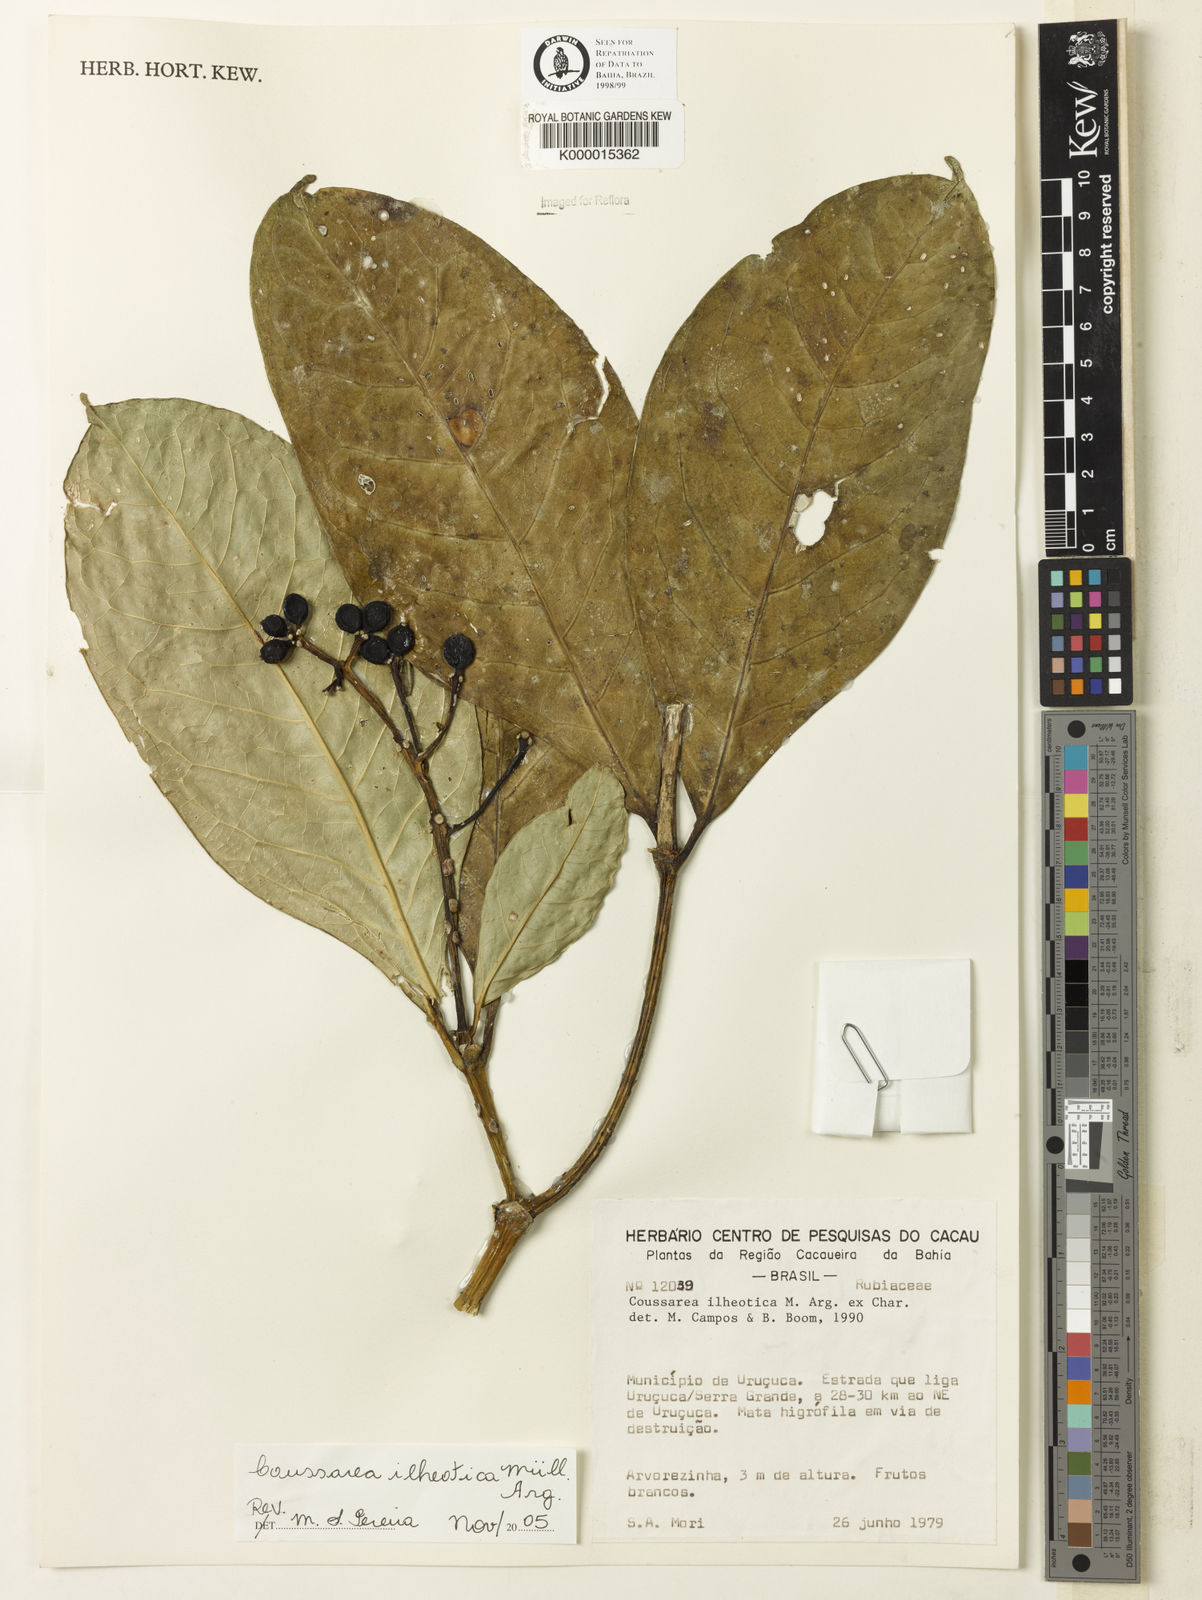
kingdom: Plantae
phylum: Tracheophyta
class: Magnoliopsida
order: Gentianales
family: Rubiaceae
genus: Coussarea
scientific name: Coussarea ilheotica
